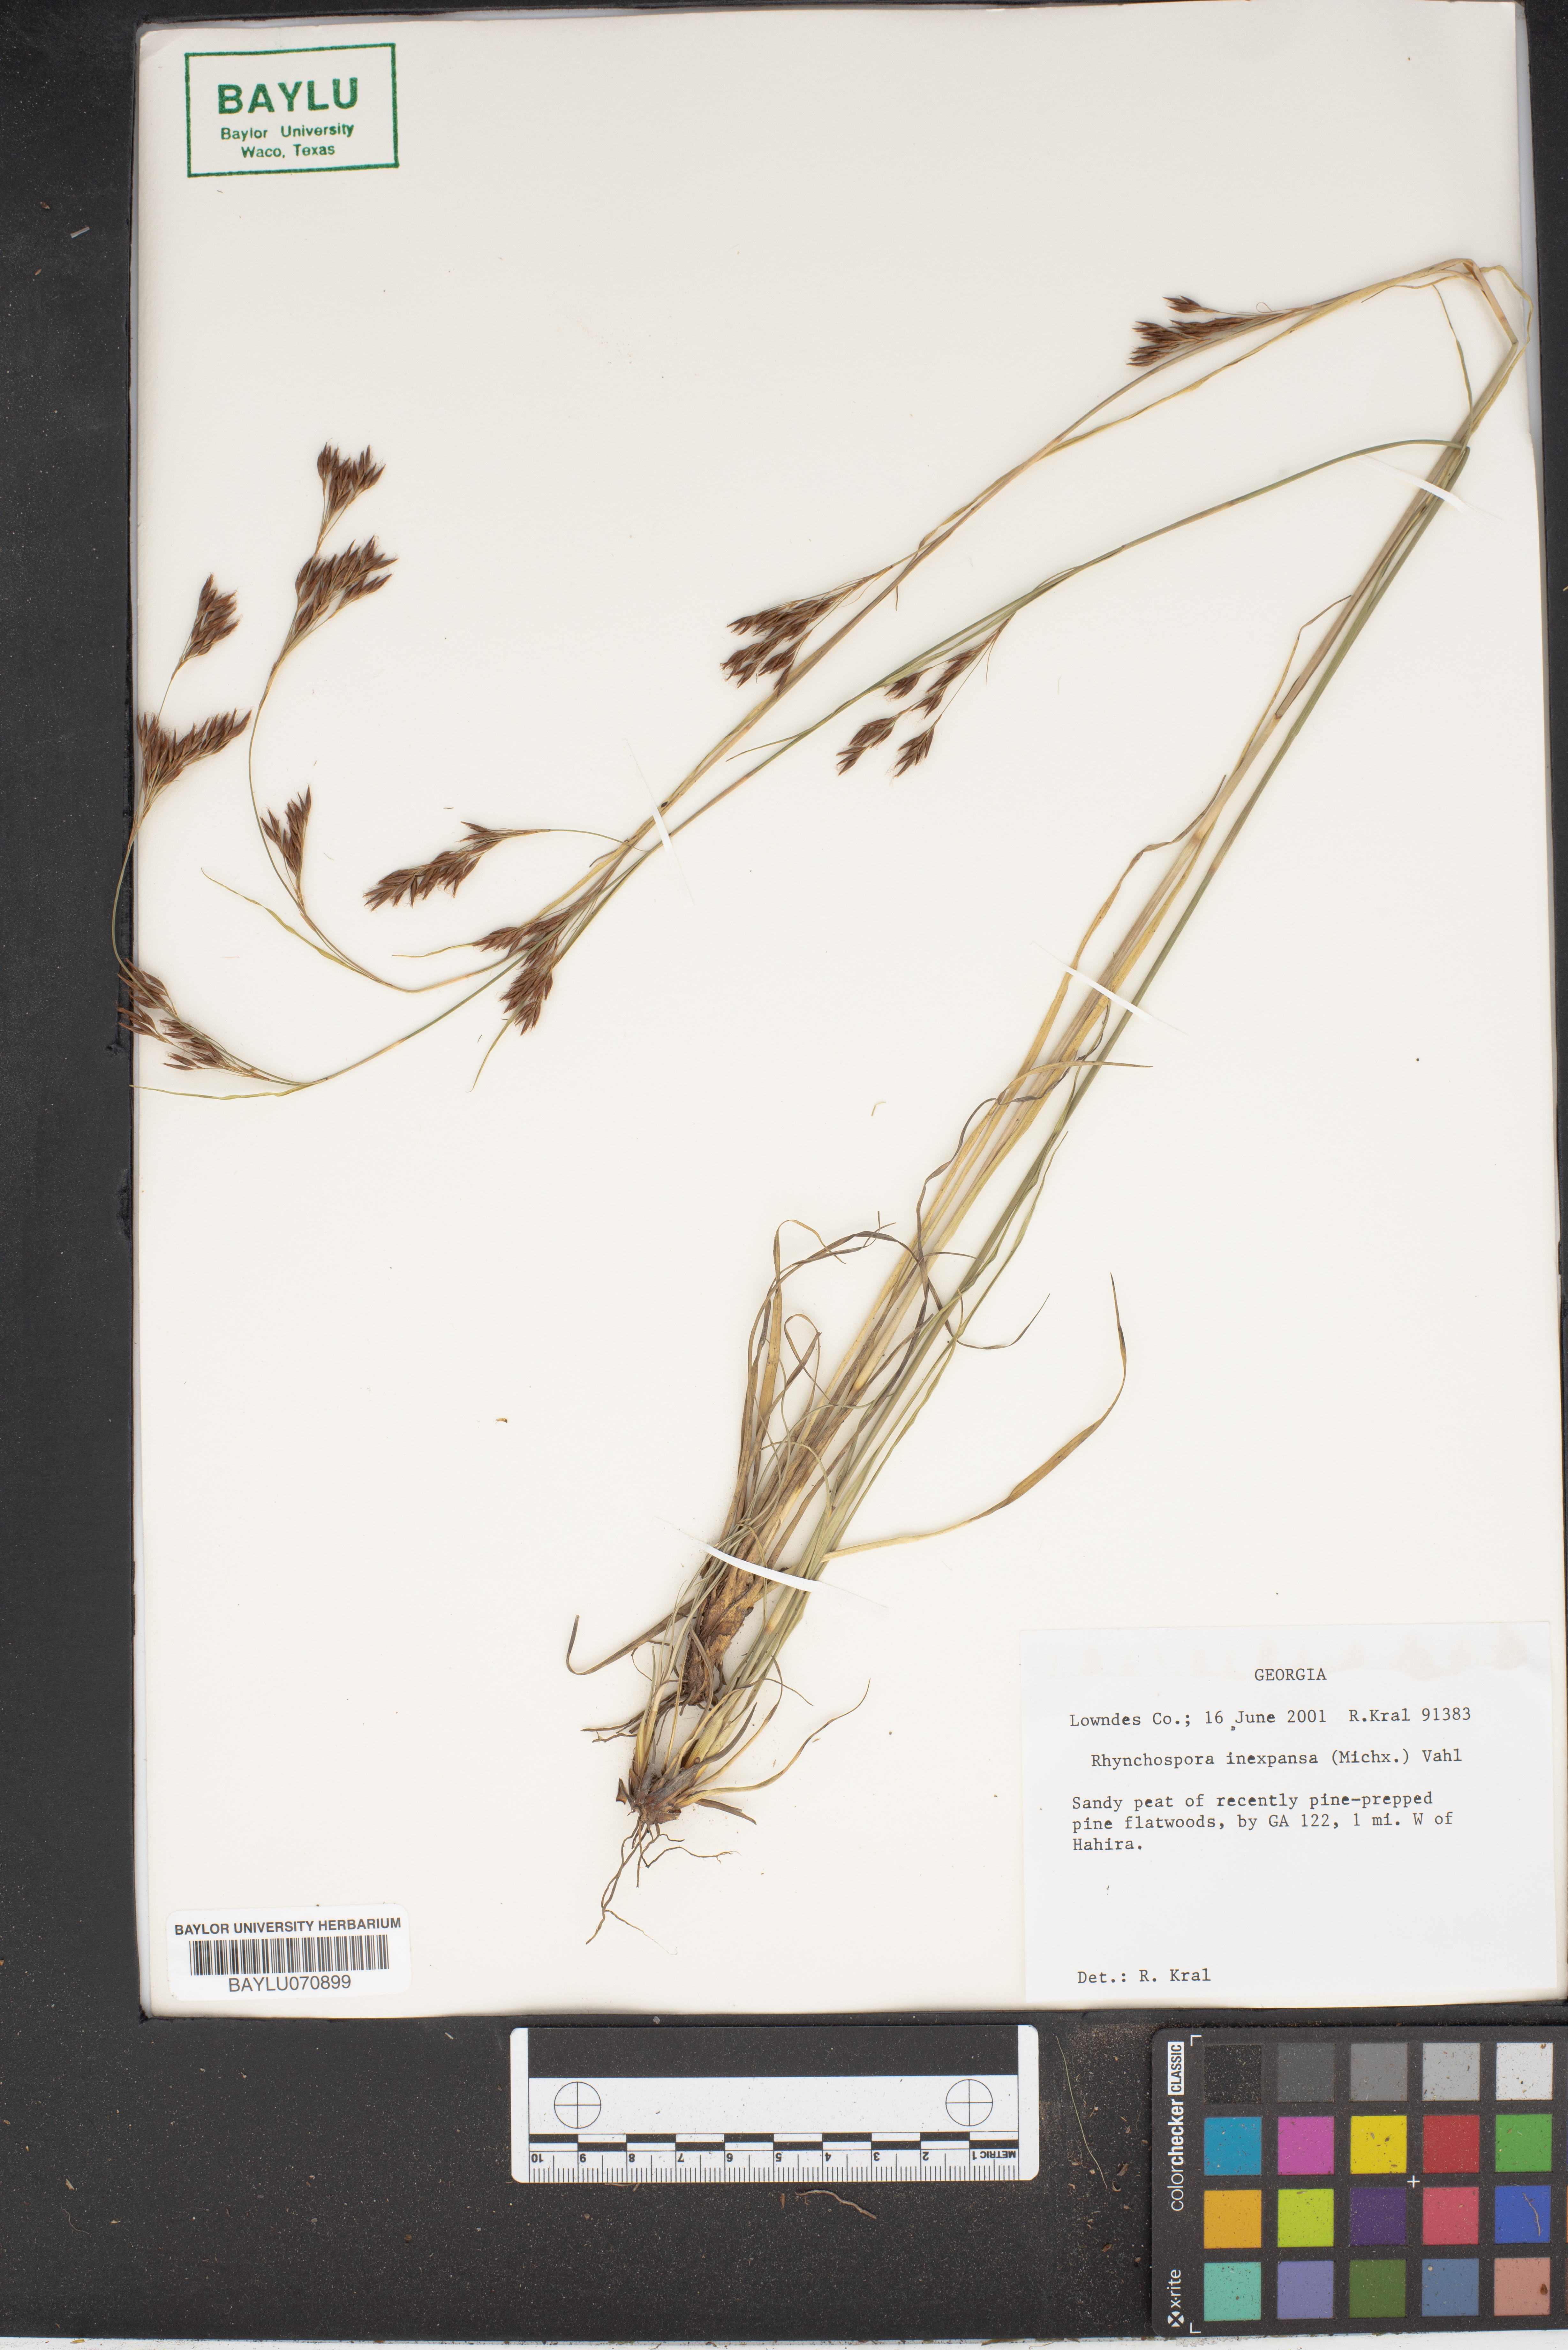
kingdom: Plantae
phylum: Tracheophyta
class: Liliopsida
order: Poales
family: Cyperaceae
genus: Rhynchospora
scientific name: Rhynchospora inexpansa
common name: Nodding beaksedge
